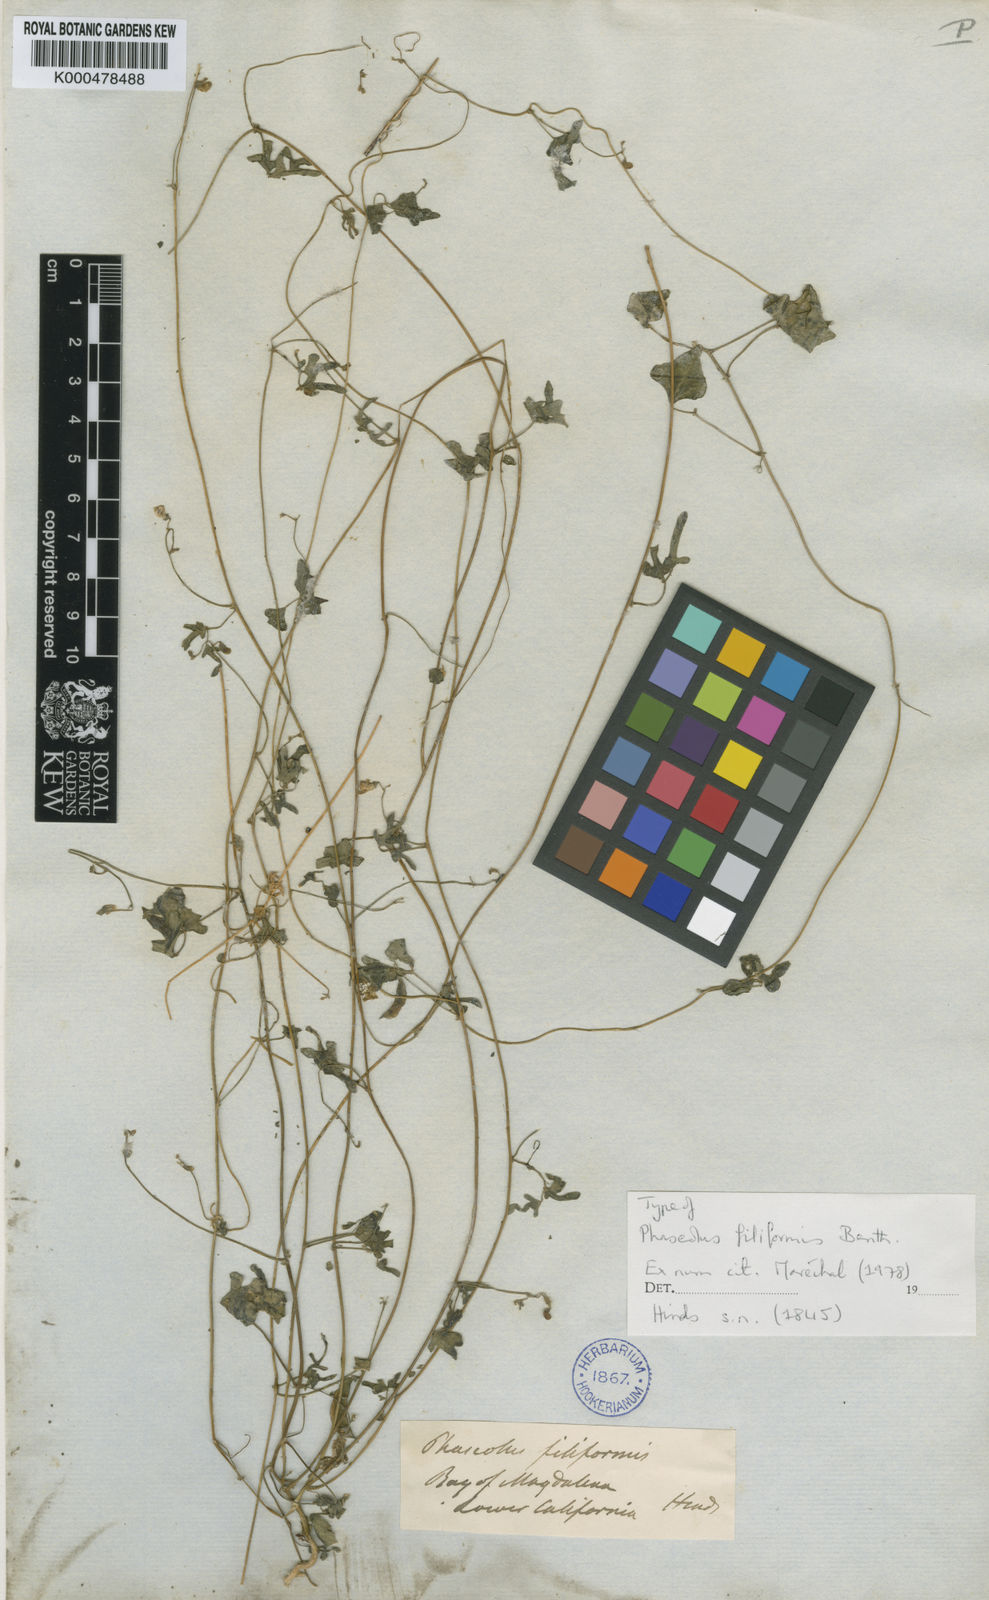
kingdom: Plantae
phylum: Tracheophyta
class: Magnoliopsida
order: Fabales
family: Fabaceae
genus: Phaseolus
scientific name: Phaseolus filiformis
